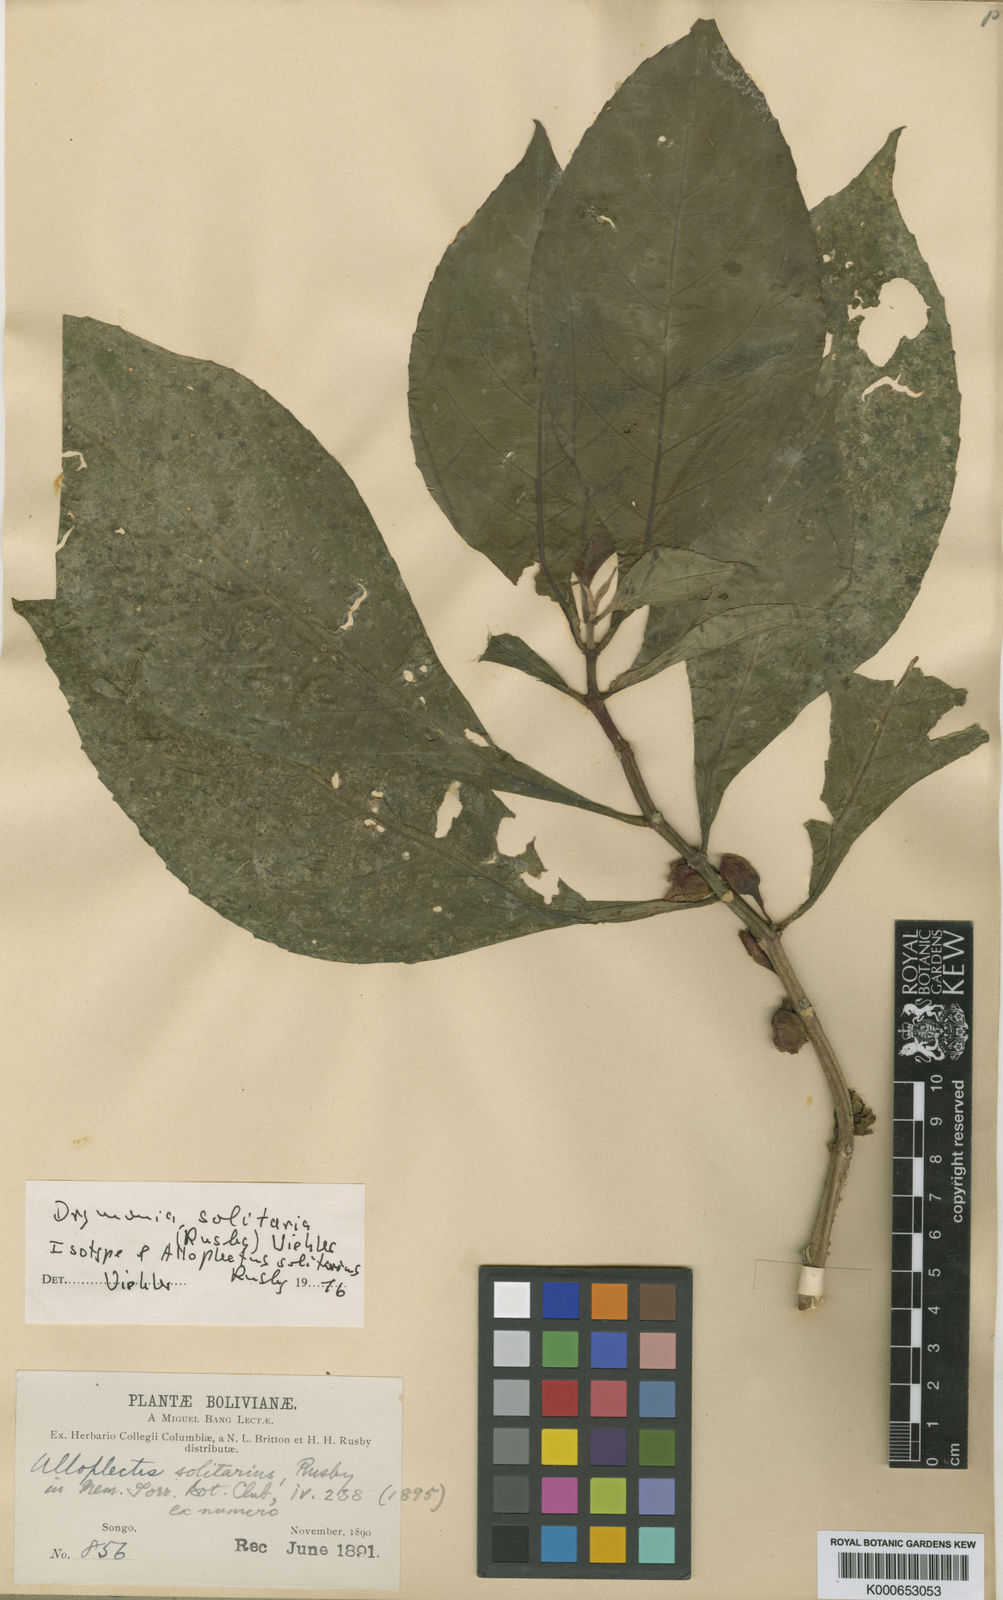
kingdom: Plantae
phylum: Tracheophyta
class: Magnoliopsida
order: Lamiales
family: Gesneriaceae
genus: Drymonia
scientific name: Drymonia solitaria
